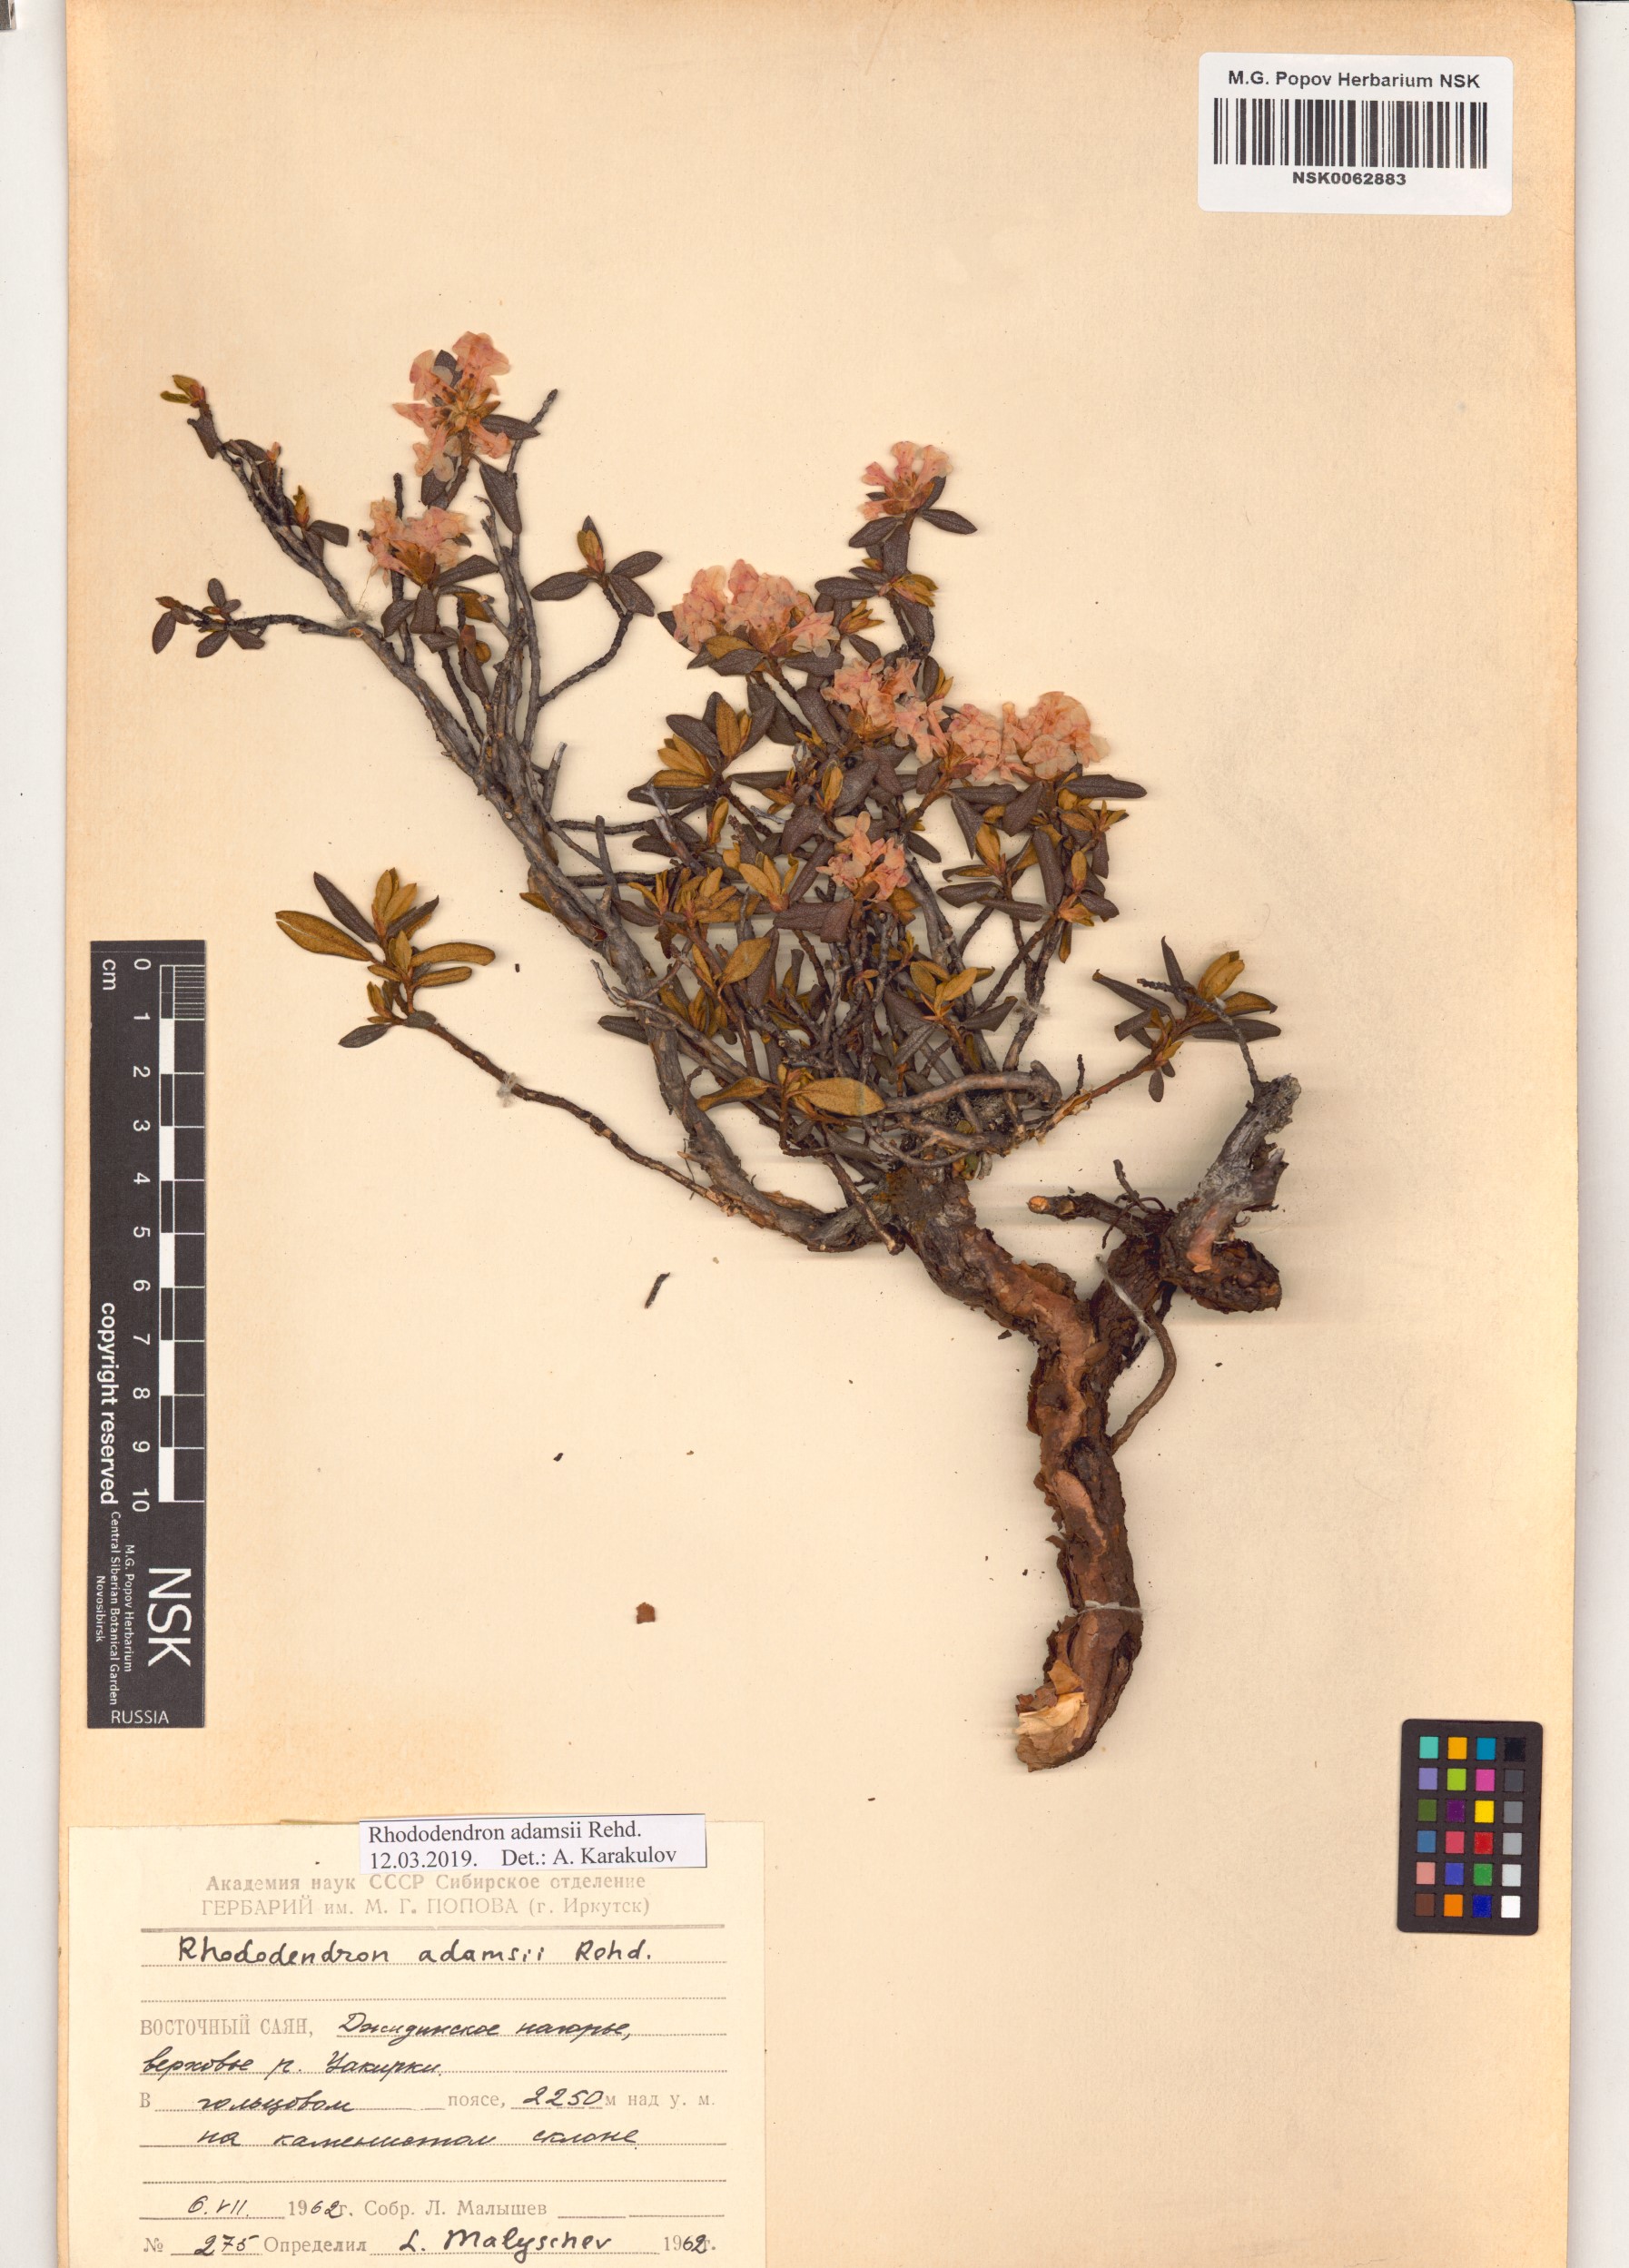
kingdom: Plantae
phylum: Tracheophyta
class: Magnoliopsida
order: Ericales
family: Ericaceae
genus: Rhododendron
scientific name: Rhododendron adamsii
